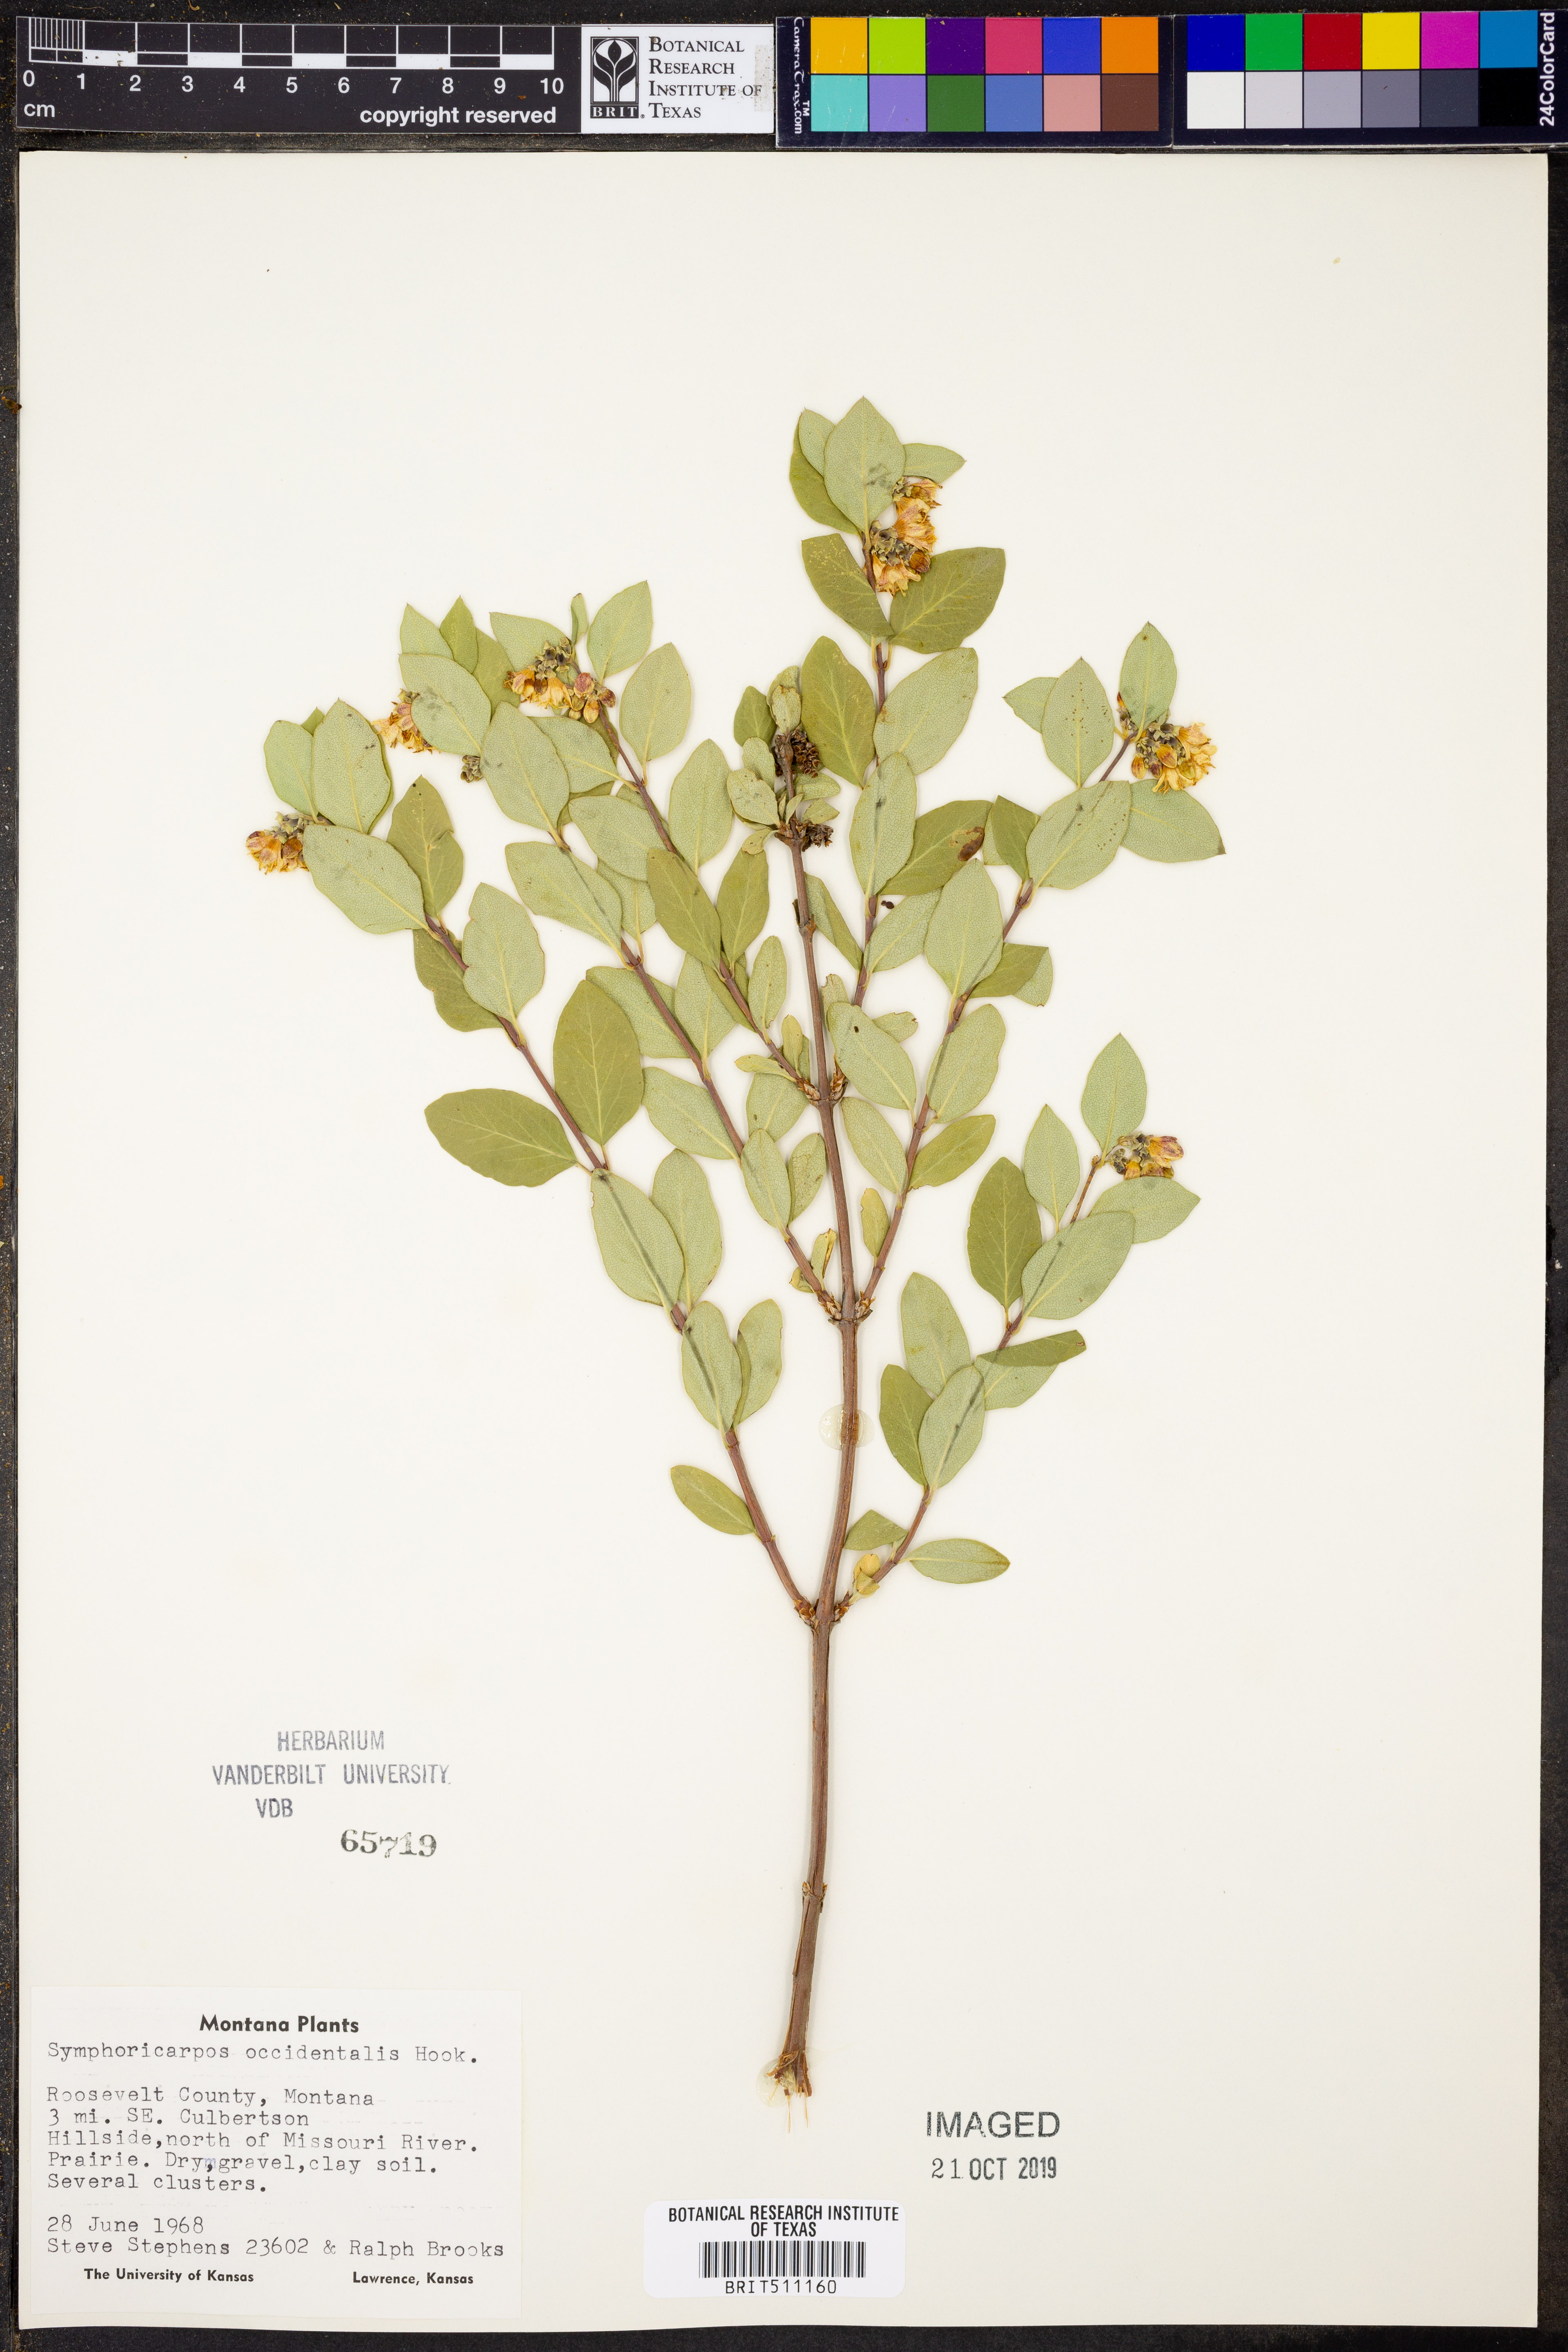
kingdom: Plantae
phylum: Tracheophyta
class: Magnoliopsida
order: Dipsacales
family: Caprifoliaceae
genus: Symphoricarpos
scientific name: Symphoricarpos occidentalis
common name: Wolfberry
